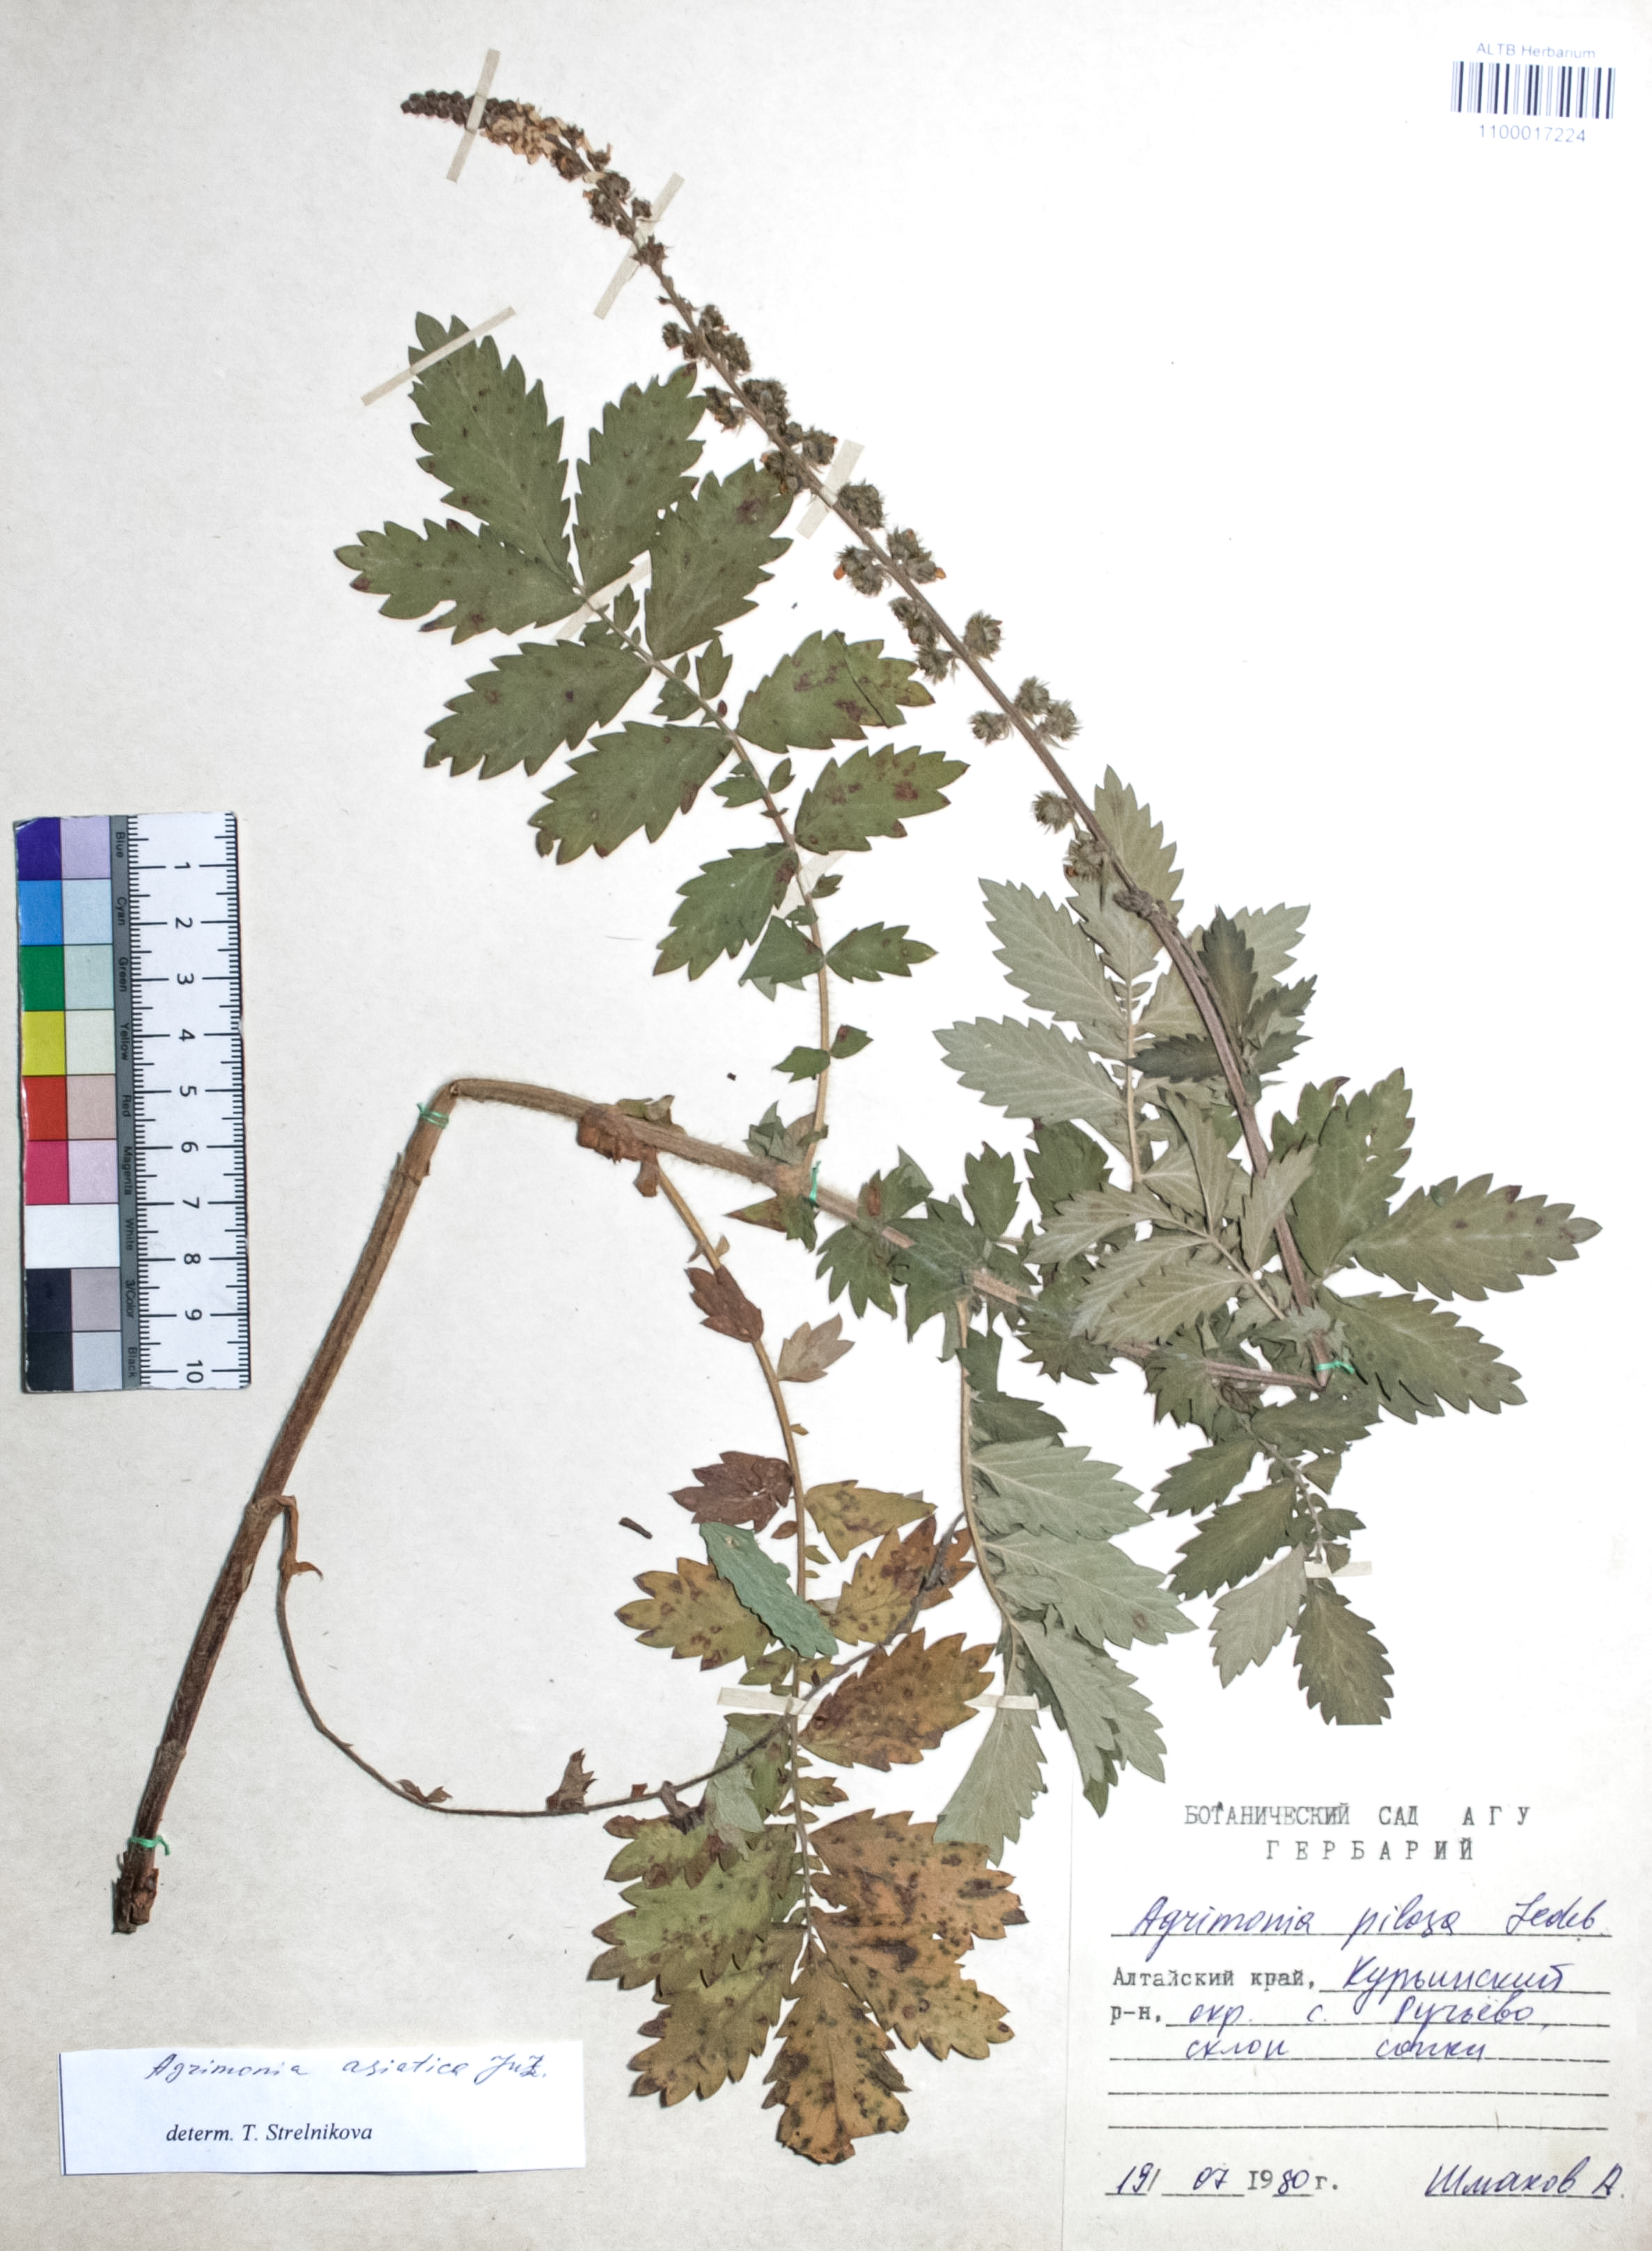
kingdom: Plantae
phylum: Tracheophyta
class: Magnoliopsida
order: Rosales
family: Rosaceae
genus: Agrimonia
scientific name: Agrimonia eupatoria
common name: Agrimony
